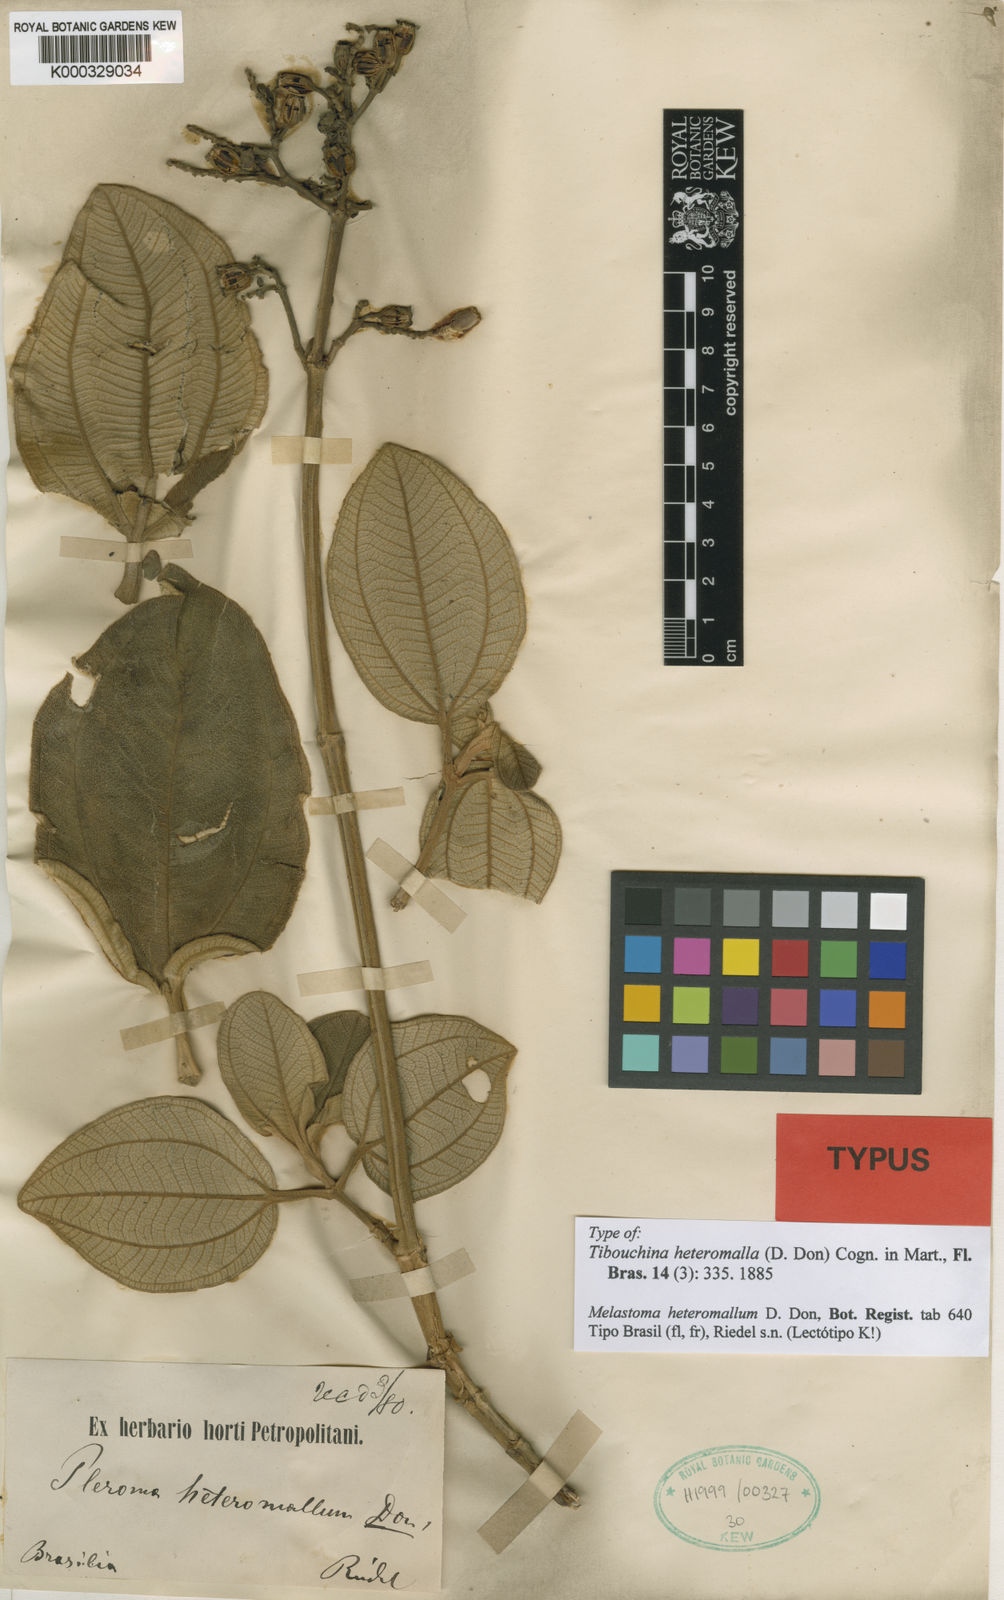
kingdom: Plantae
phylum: Tracheophyta
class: Magnoliopsida
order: Myrtales
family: Melastomataceae
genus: Pleroma
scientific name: Pleroma heteromallum
